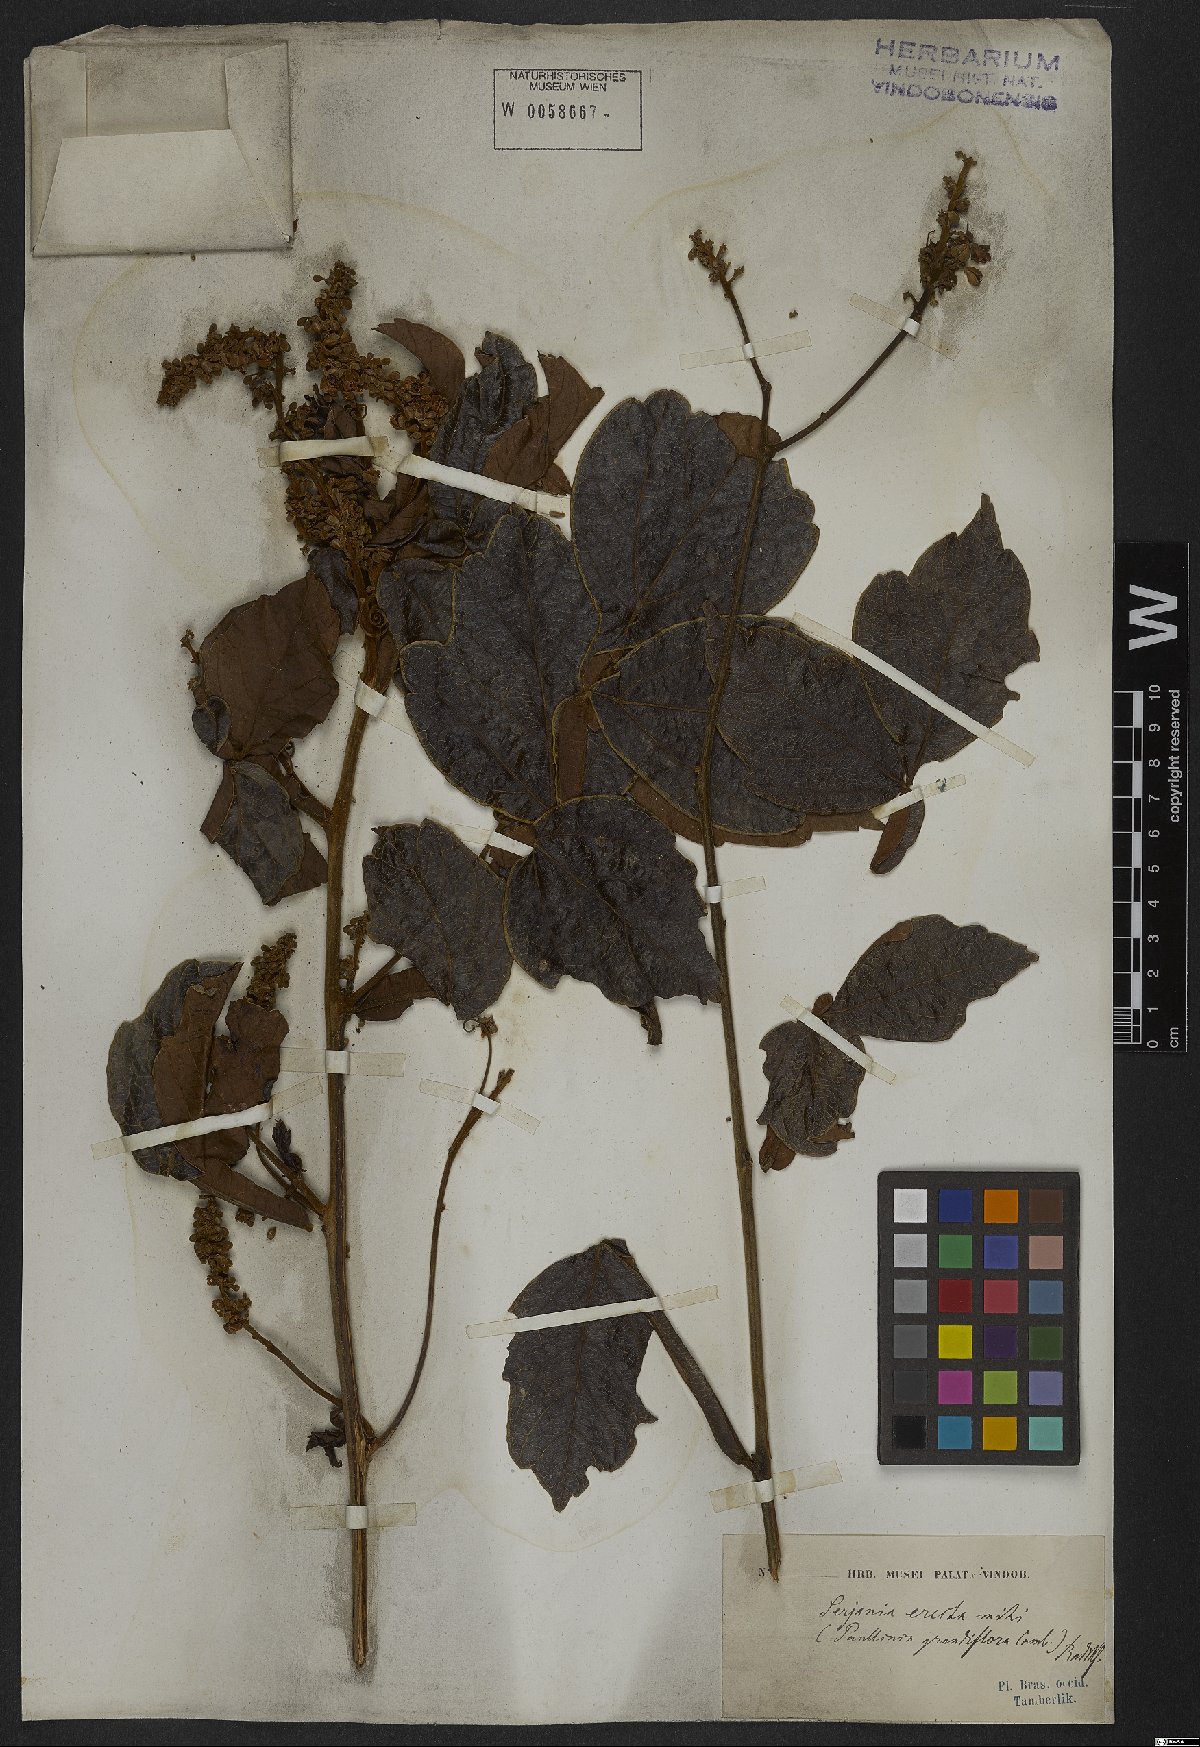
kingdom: Plantae
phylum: Tracheophyta
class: Magnoliopsida
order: Sapindales
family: Sapindaceae
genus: Serjania
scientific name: Serjania erecta
